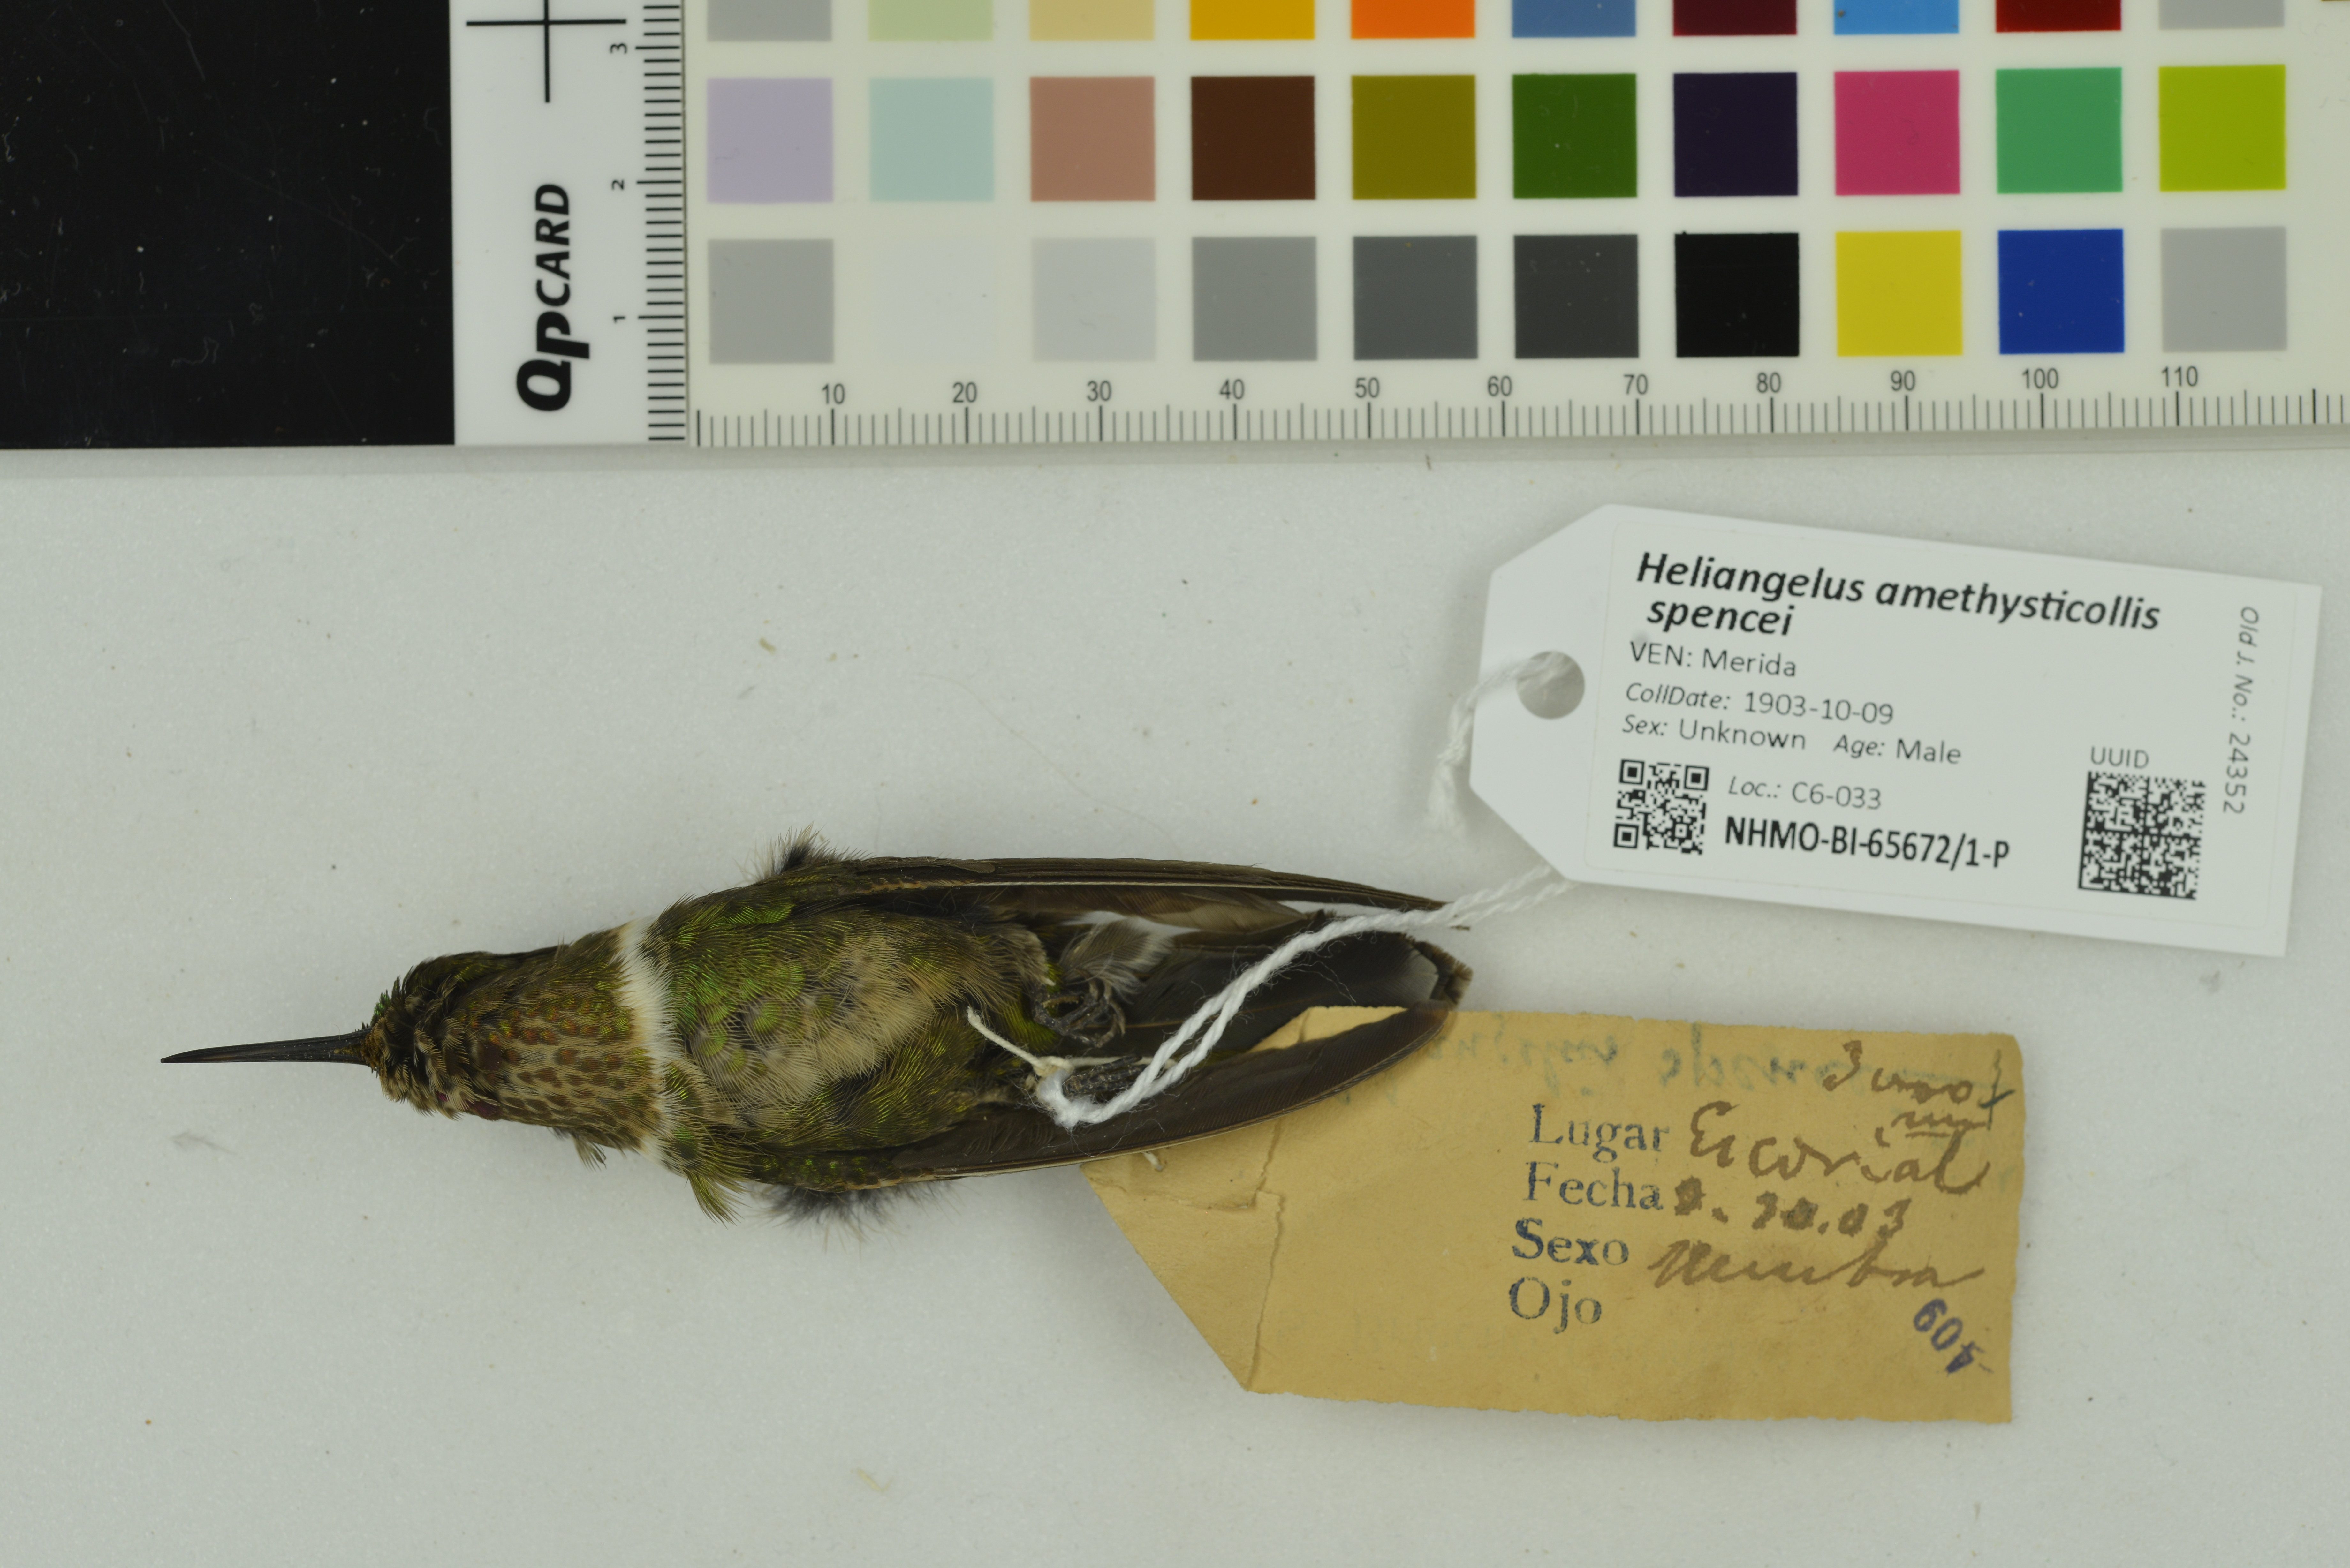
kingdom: Animalia
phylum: Chordata
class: Aves
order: Apodiformes
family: Trochilidae
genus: Heliangelus
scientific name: Heliangelus spencei
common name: Merida sunangel
